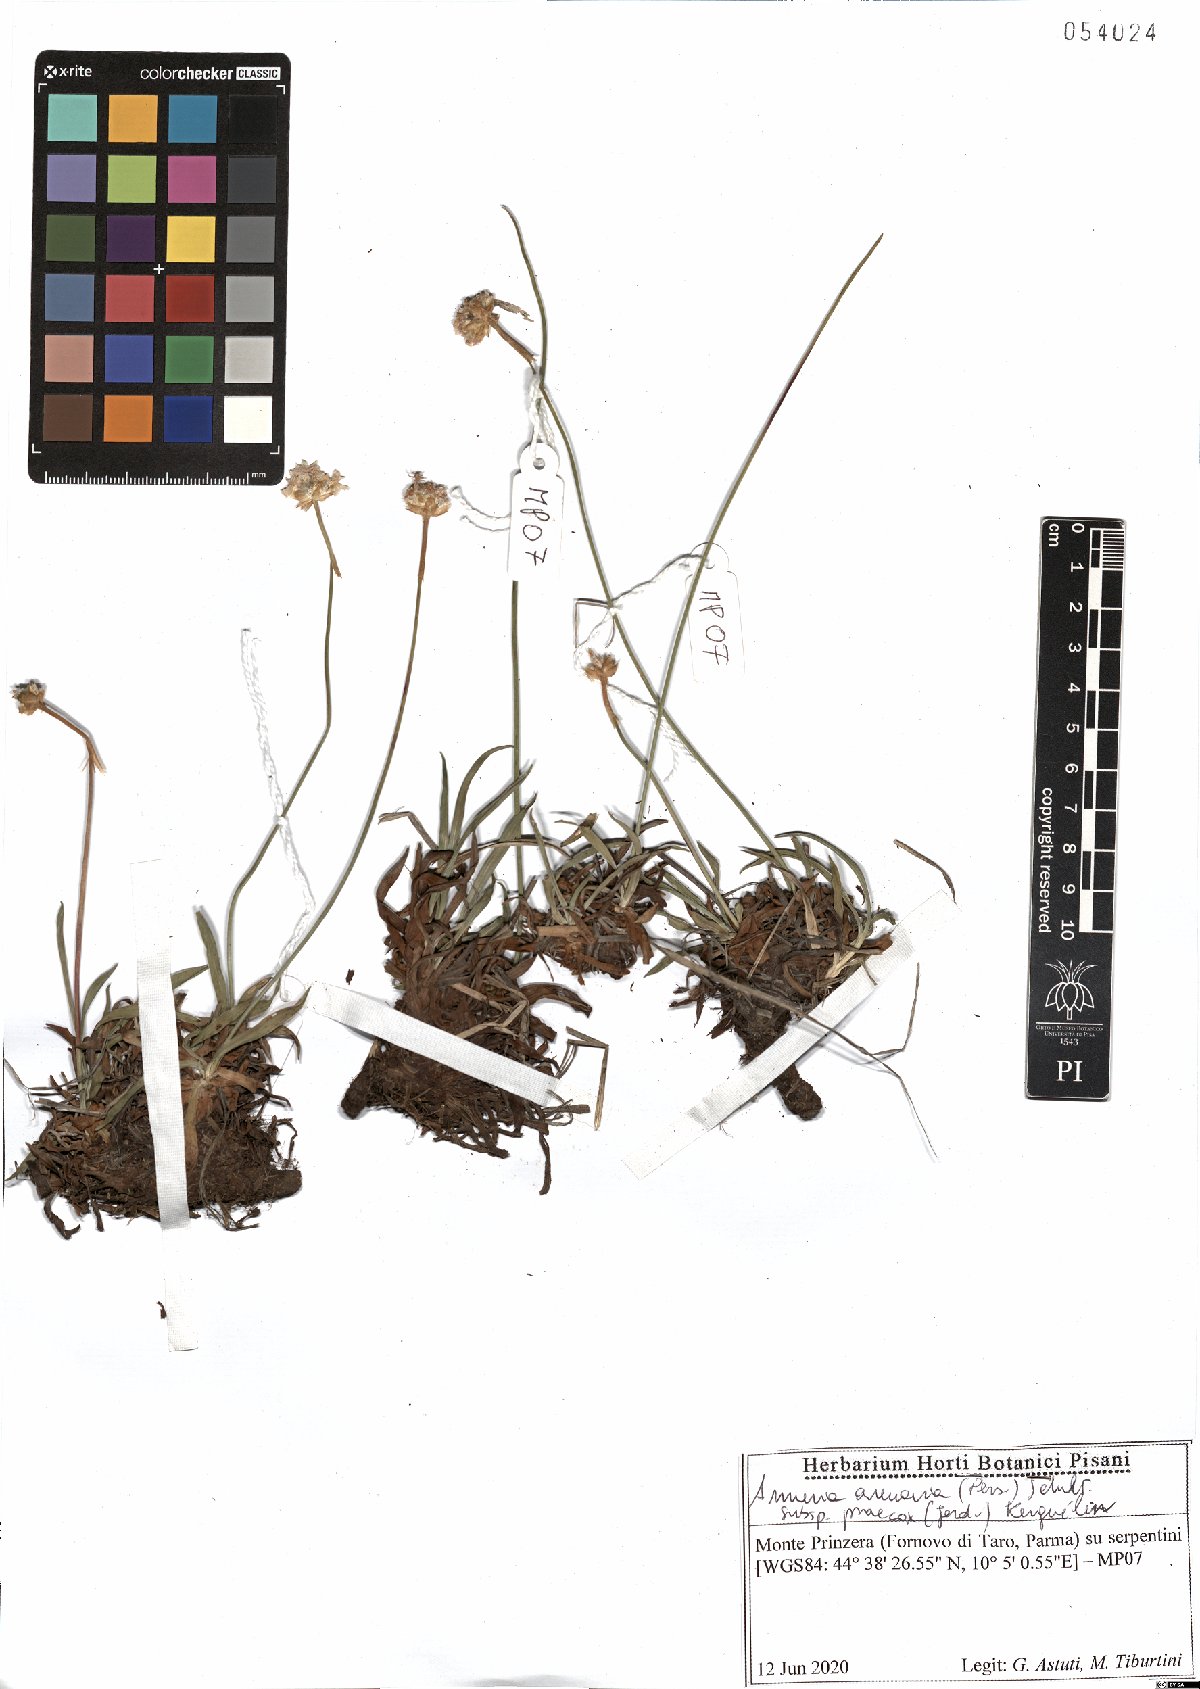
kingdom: Plantae
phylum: Tracheophyta
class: Magnoliopsida
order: Caryophyllales
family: Plumbaginaceae
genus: Armeria
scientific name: Armeria arenaria
